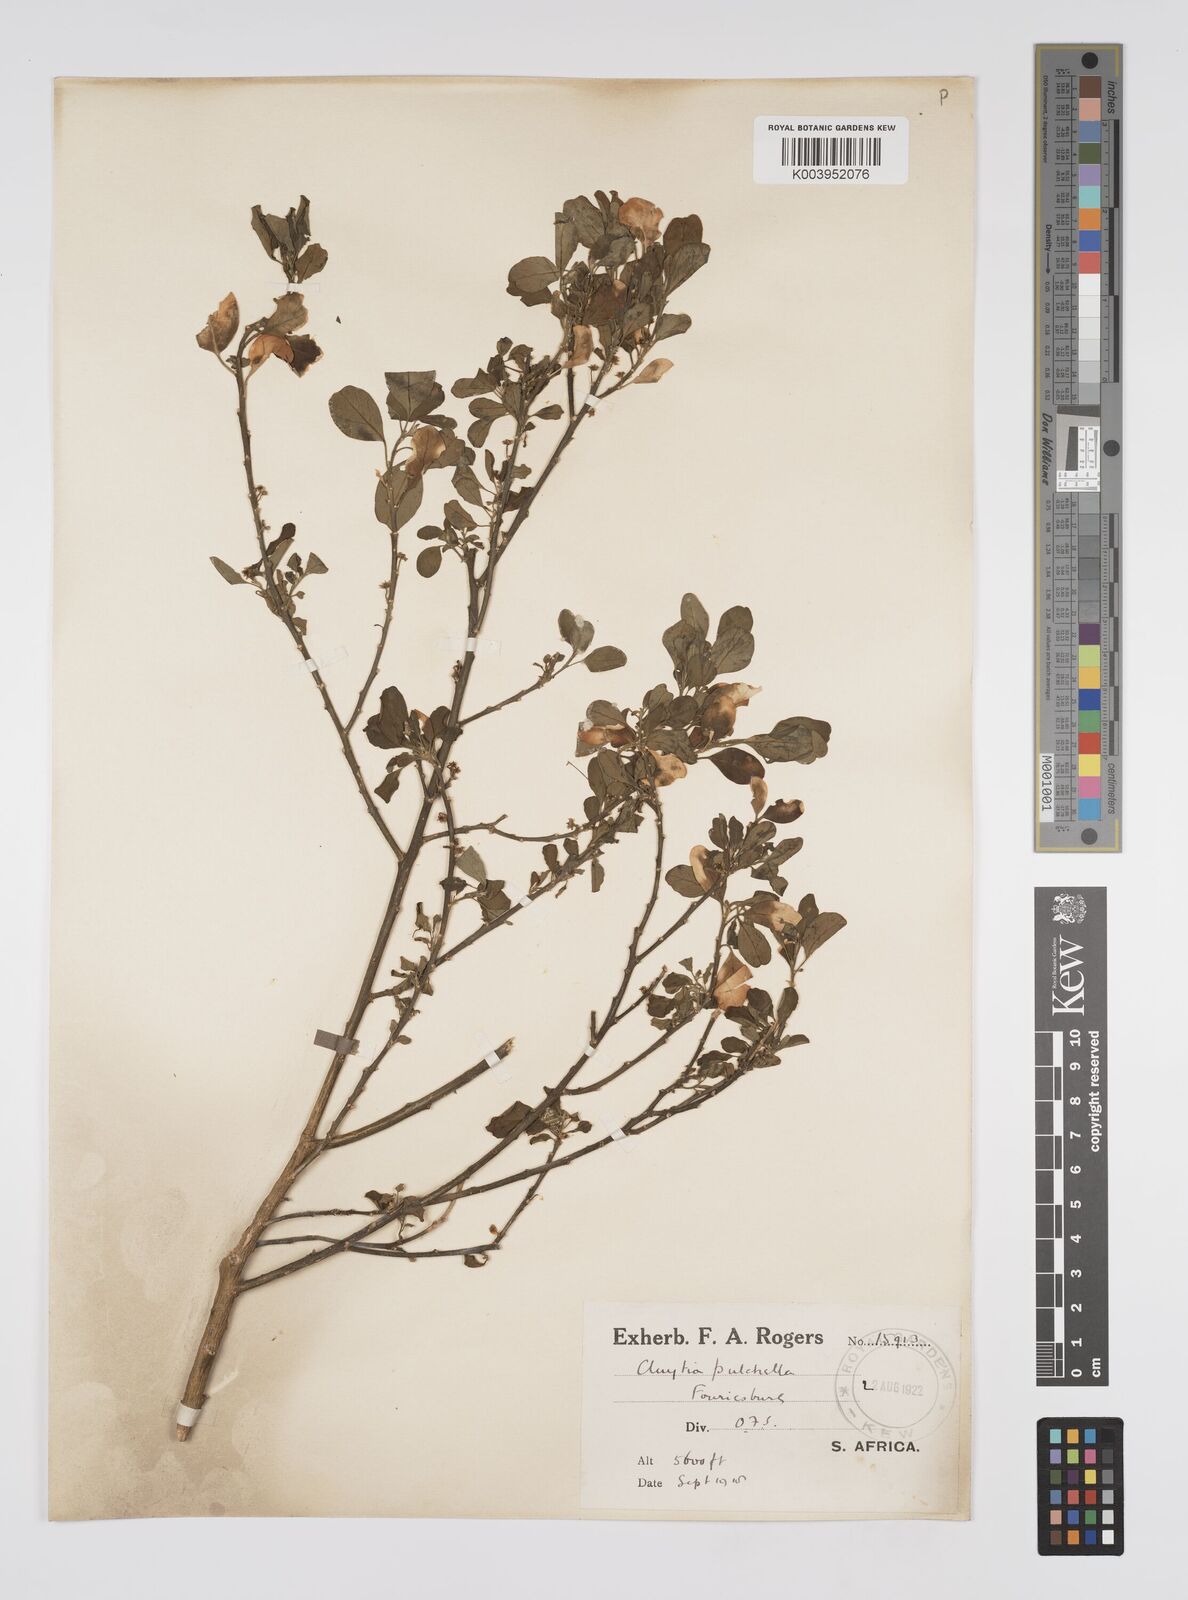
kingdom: Plantae
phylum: Tracheophyta
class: Magnoliopsida
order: Malpighiales
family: Peraceae
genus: Clutia
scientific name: Clutia
